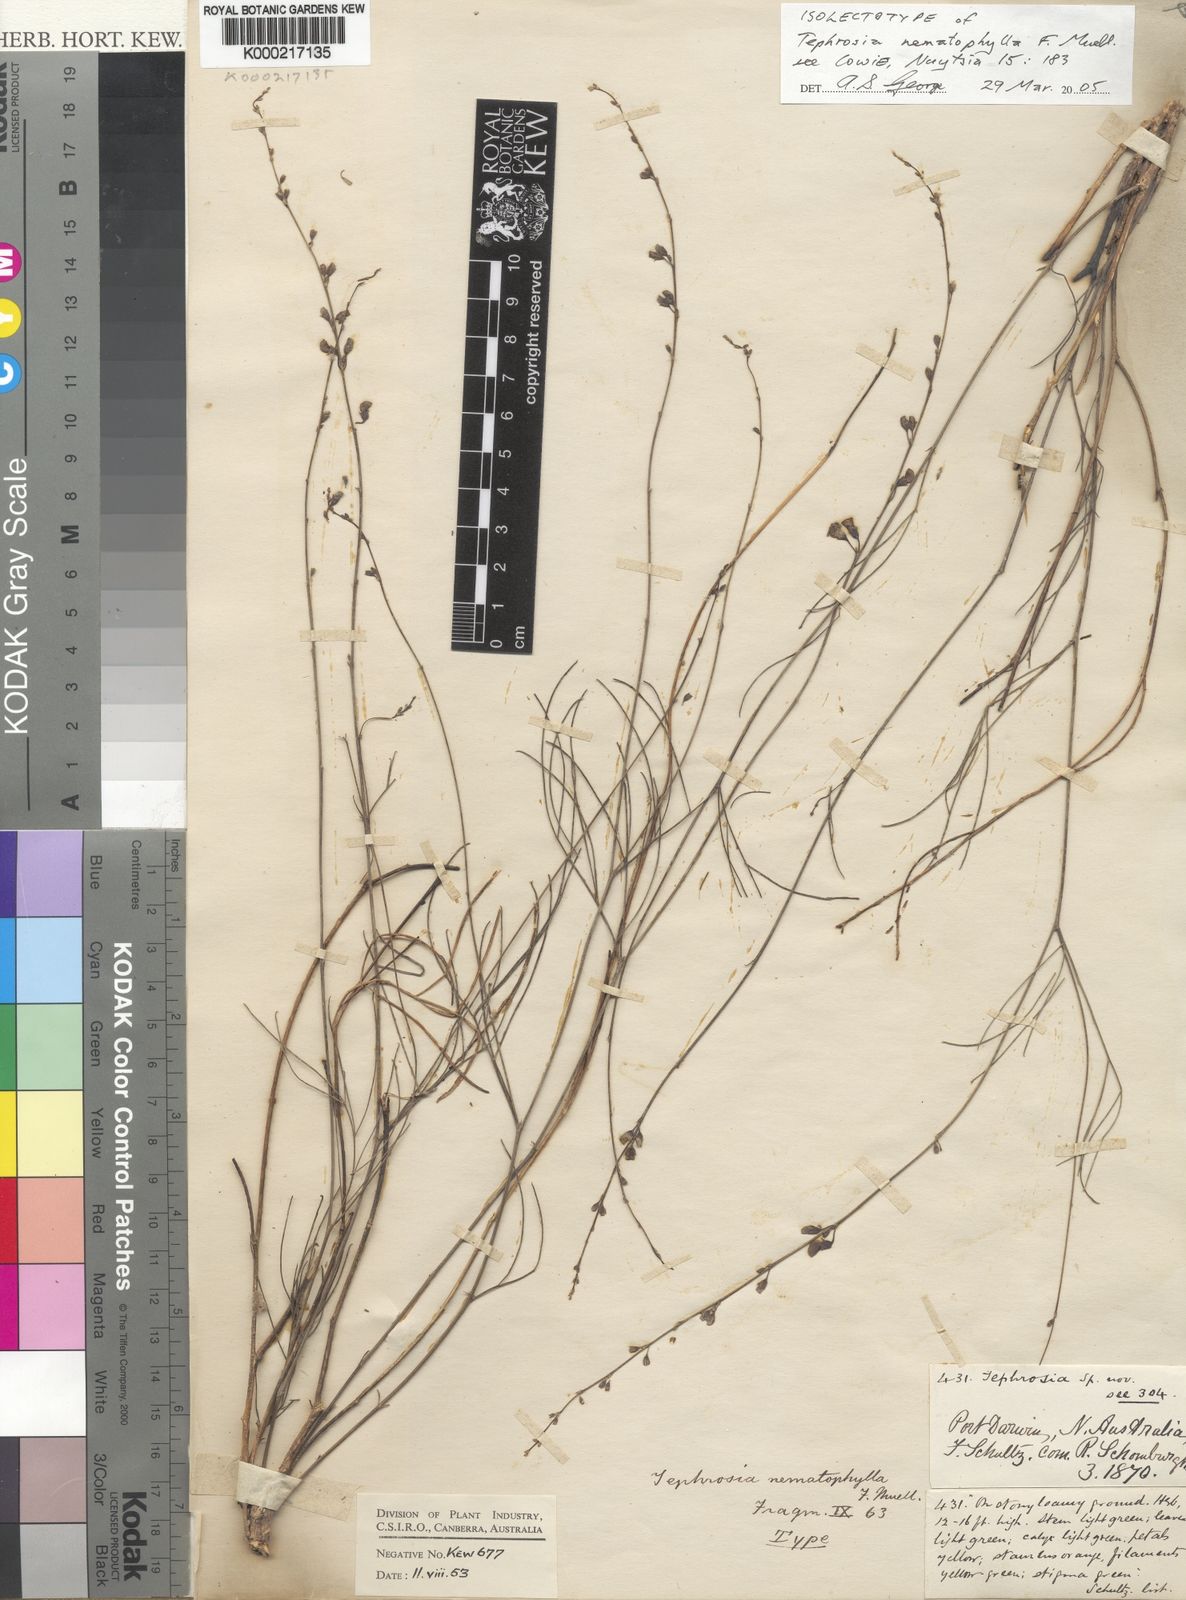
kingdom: Plantae
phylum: Tracheophyta
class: Magnoliopsida
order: Fabales
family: Fabaceae
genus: Tephrosia
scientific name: Tephrosia nematophylla
